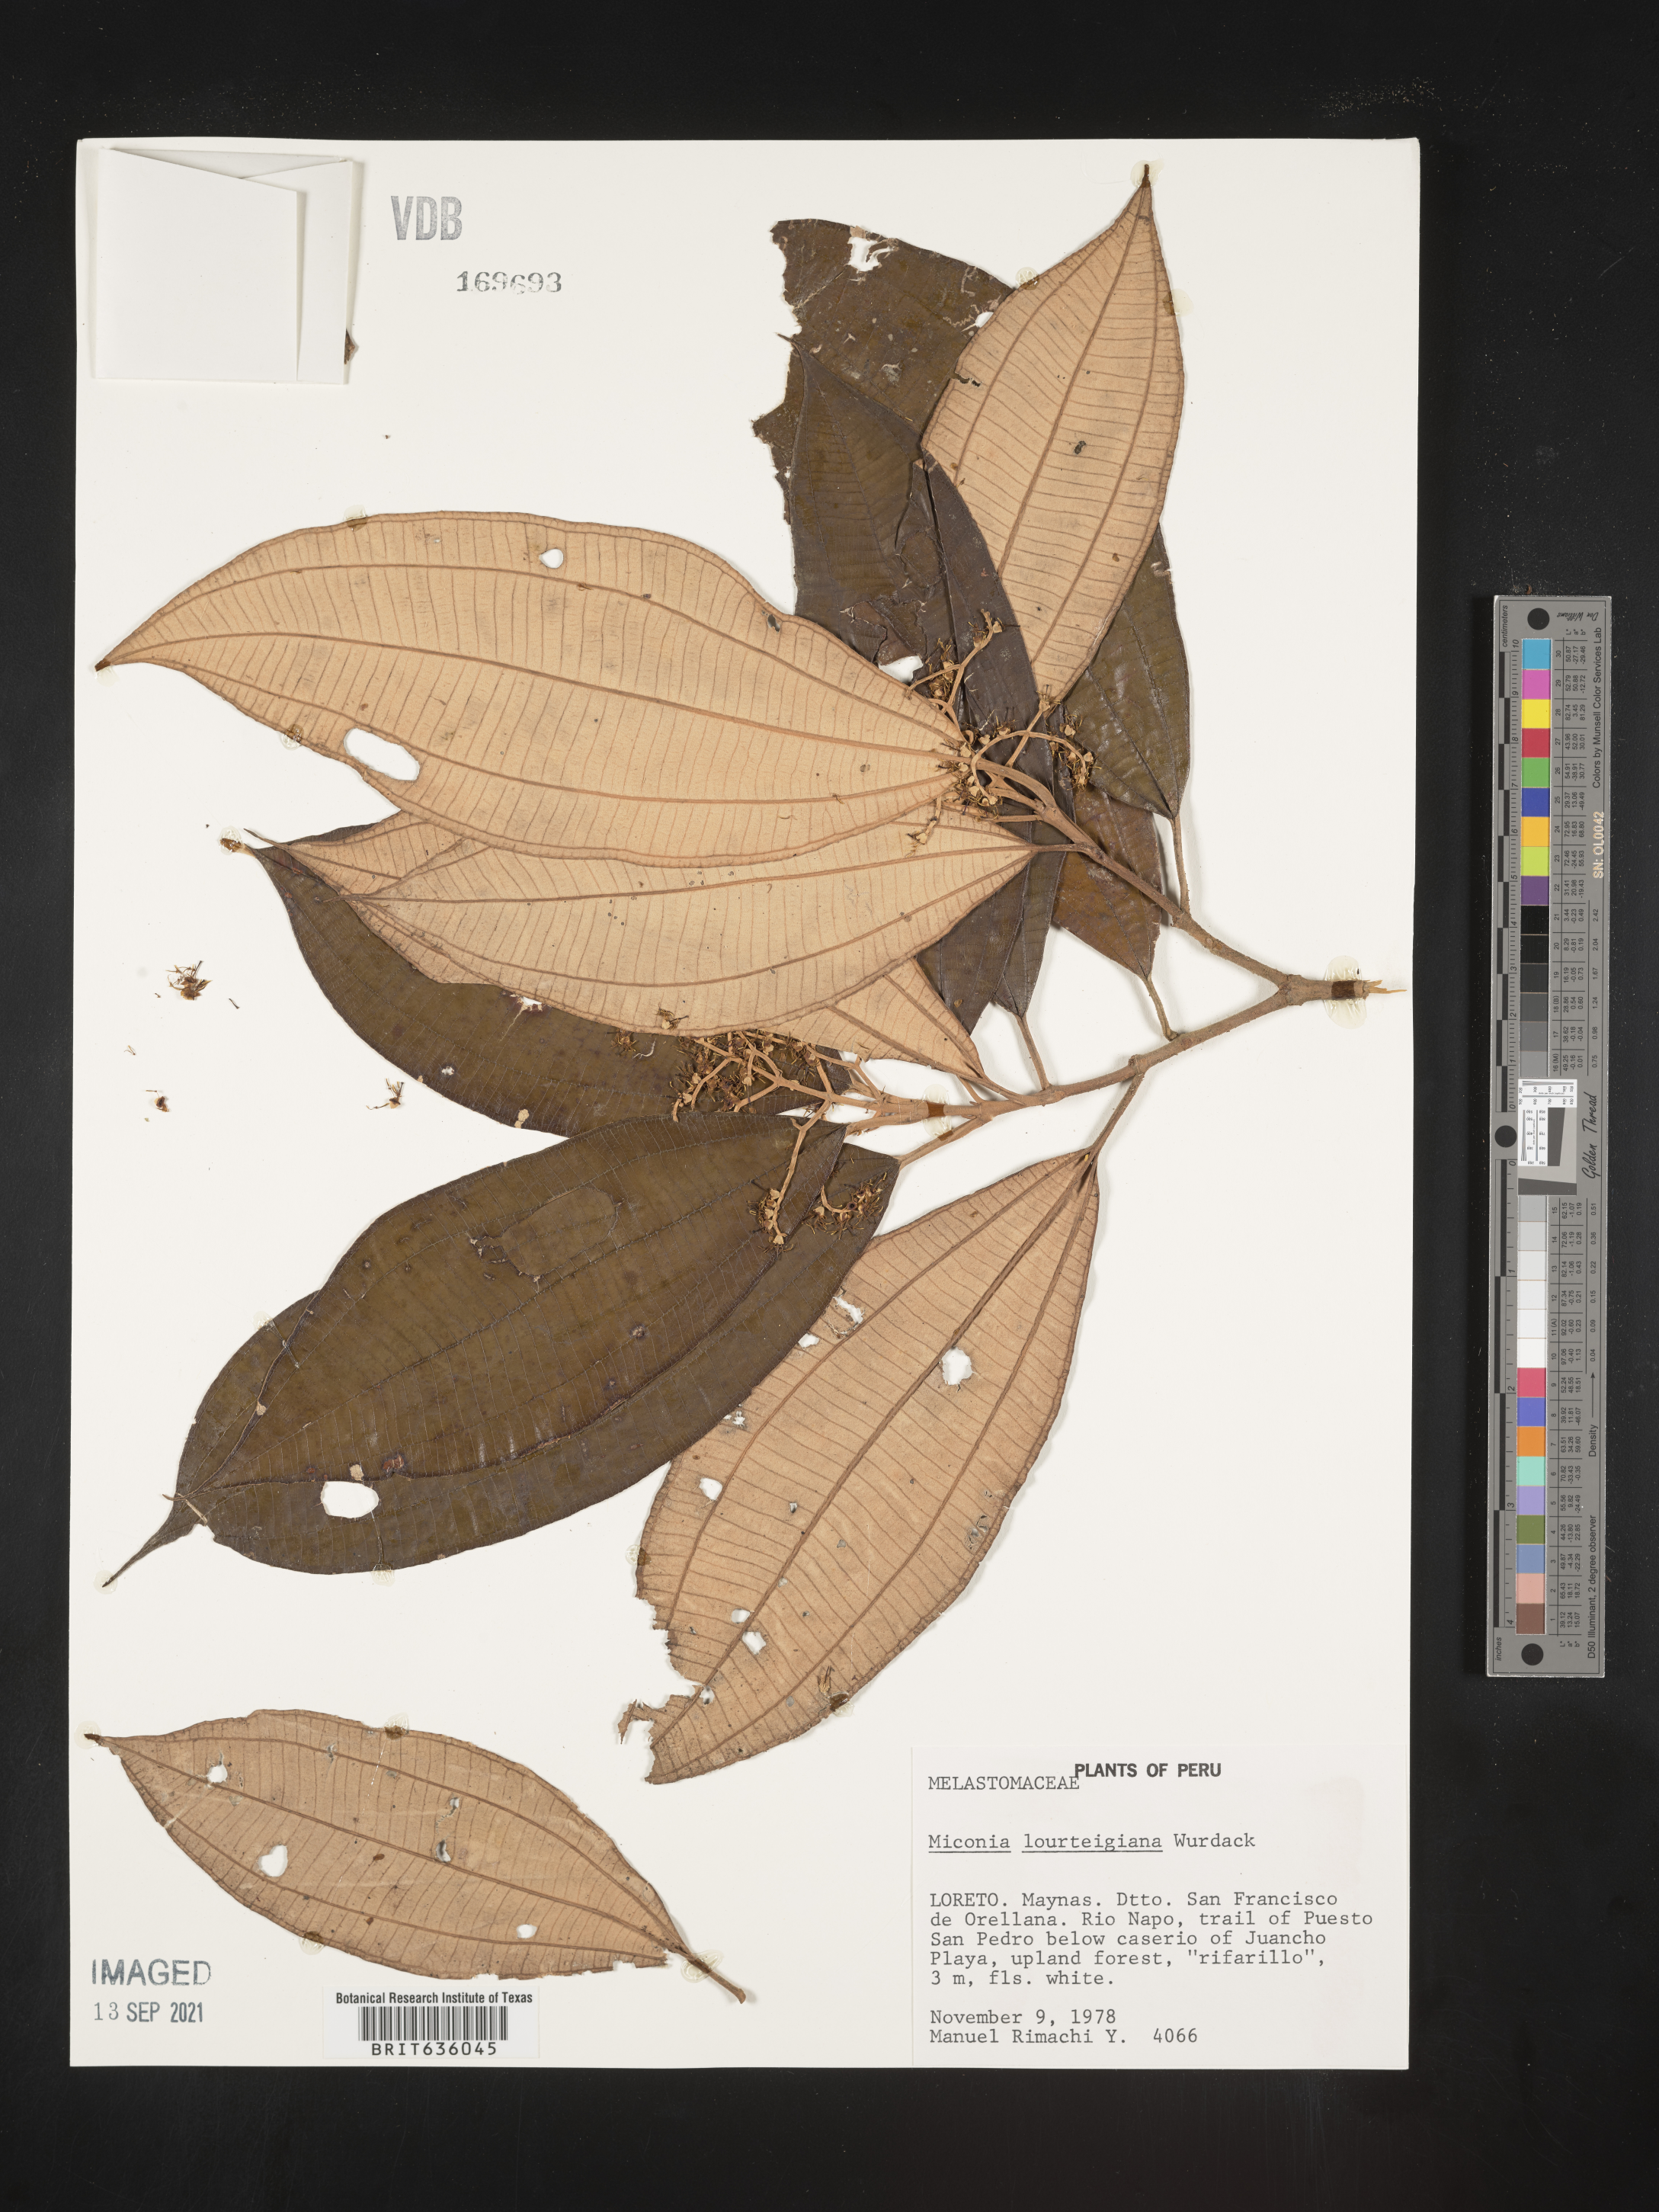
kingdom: Plantae
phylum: Tracheophyta
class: Magnoliopsida
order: Myrtales
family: Melastomataceae
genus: Miconia
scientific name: Miconia
